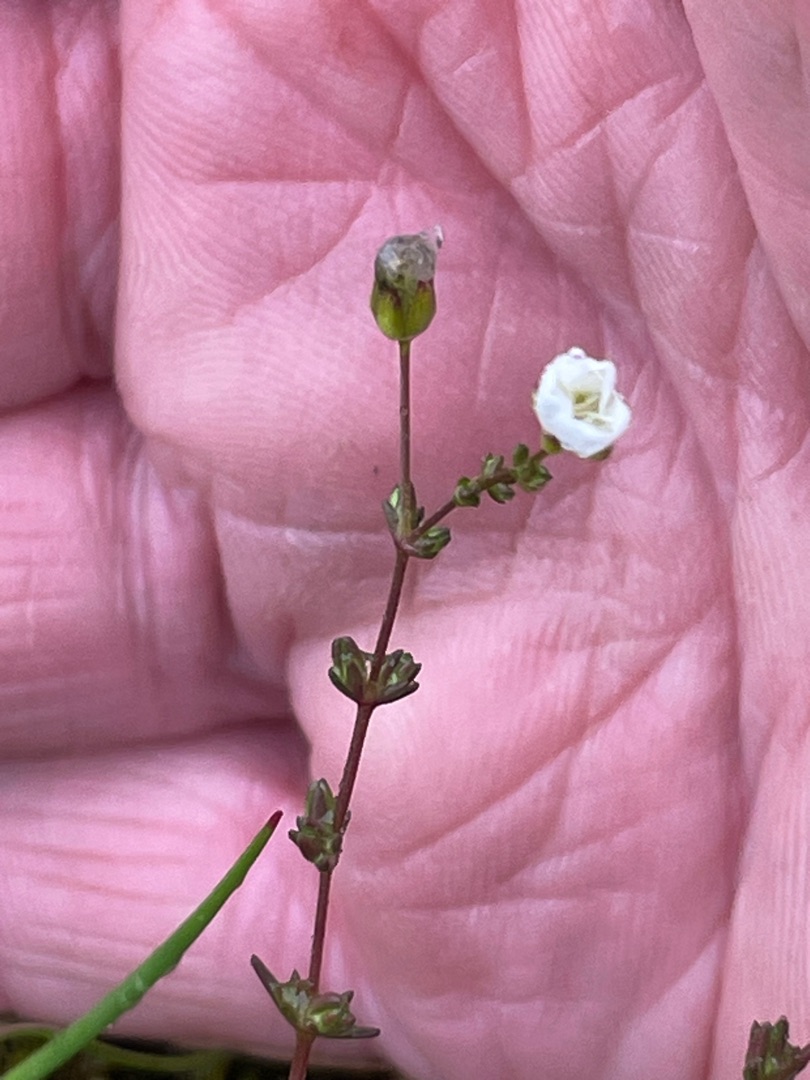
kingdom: Plantae
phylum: Tracheophyta
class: Magnoliopsida
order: Caryophyllales
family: Caryophyllaceae
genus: Sagina
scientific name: Sagina nodosa
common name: Knude-firling
